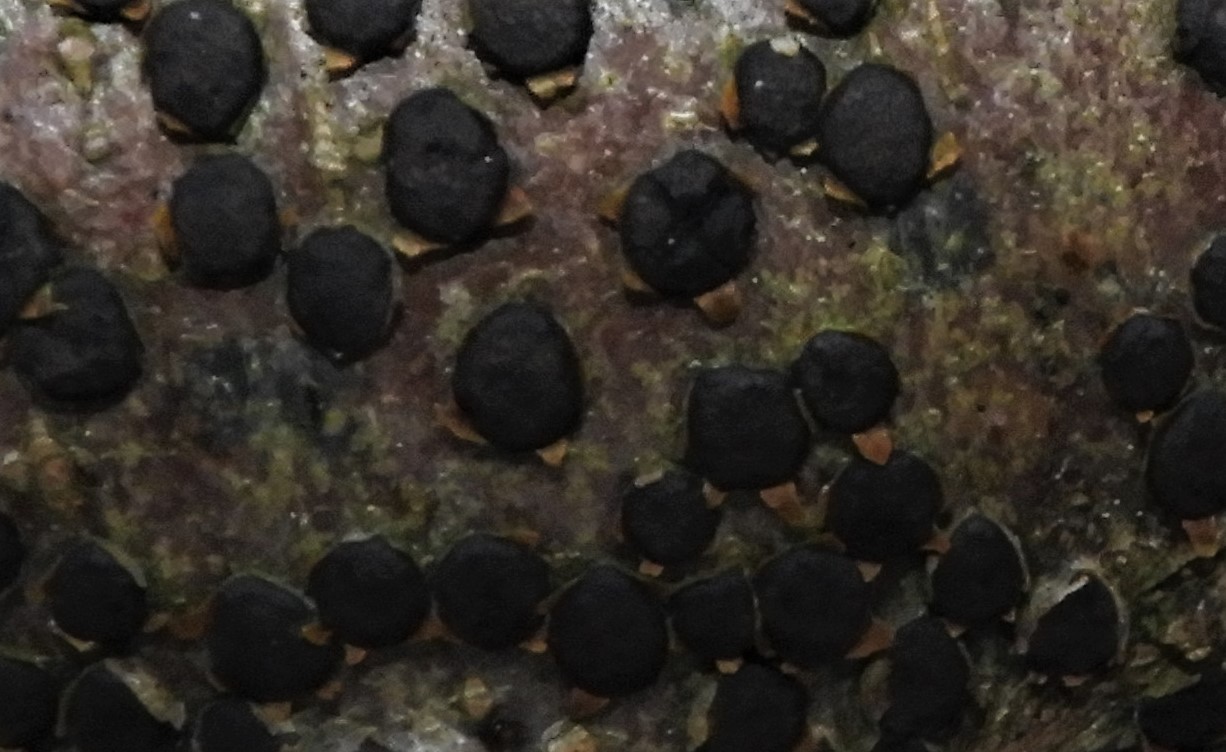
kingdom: Fungi
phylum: Ascomycota
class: Sordariomycetes
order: Xylariales
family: Diatrypaceae
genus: Diatrype
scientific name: Diatrype disciformis
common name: kant-kulskorpe
